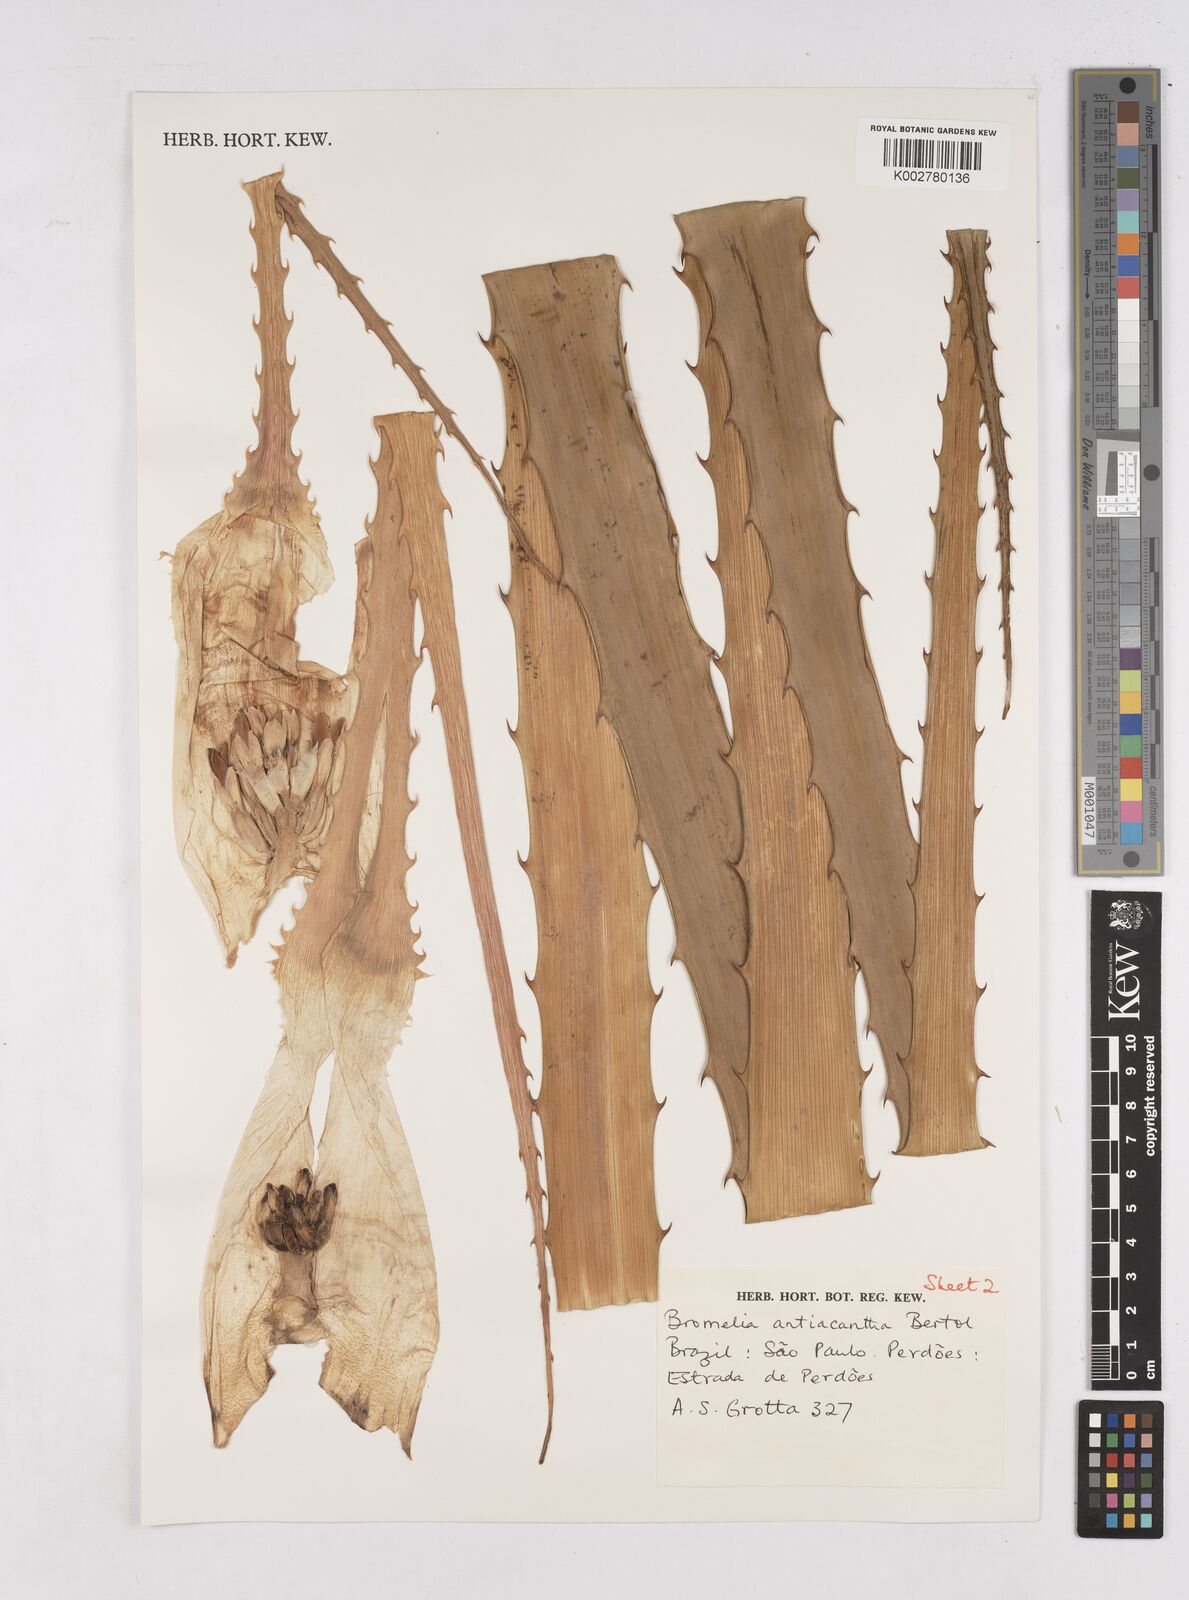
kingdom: Plantae
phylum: Tracheophyta
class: Liliopsida
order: Poales
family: Bromeliaceae
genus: Bromelia
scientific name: Bromelia antiacantha
